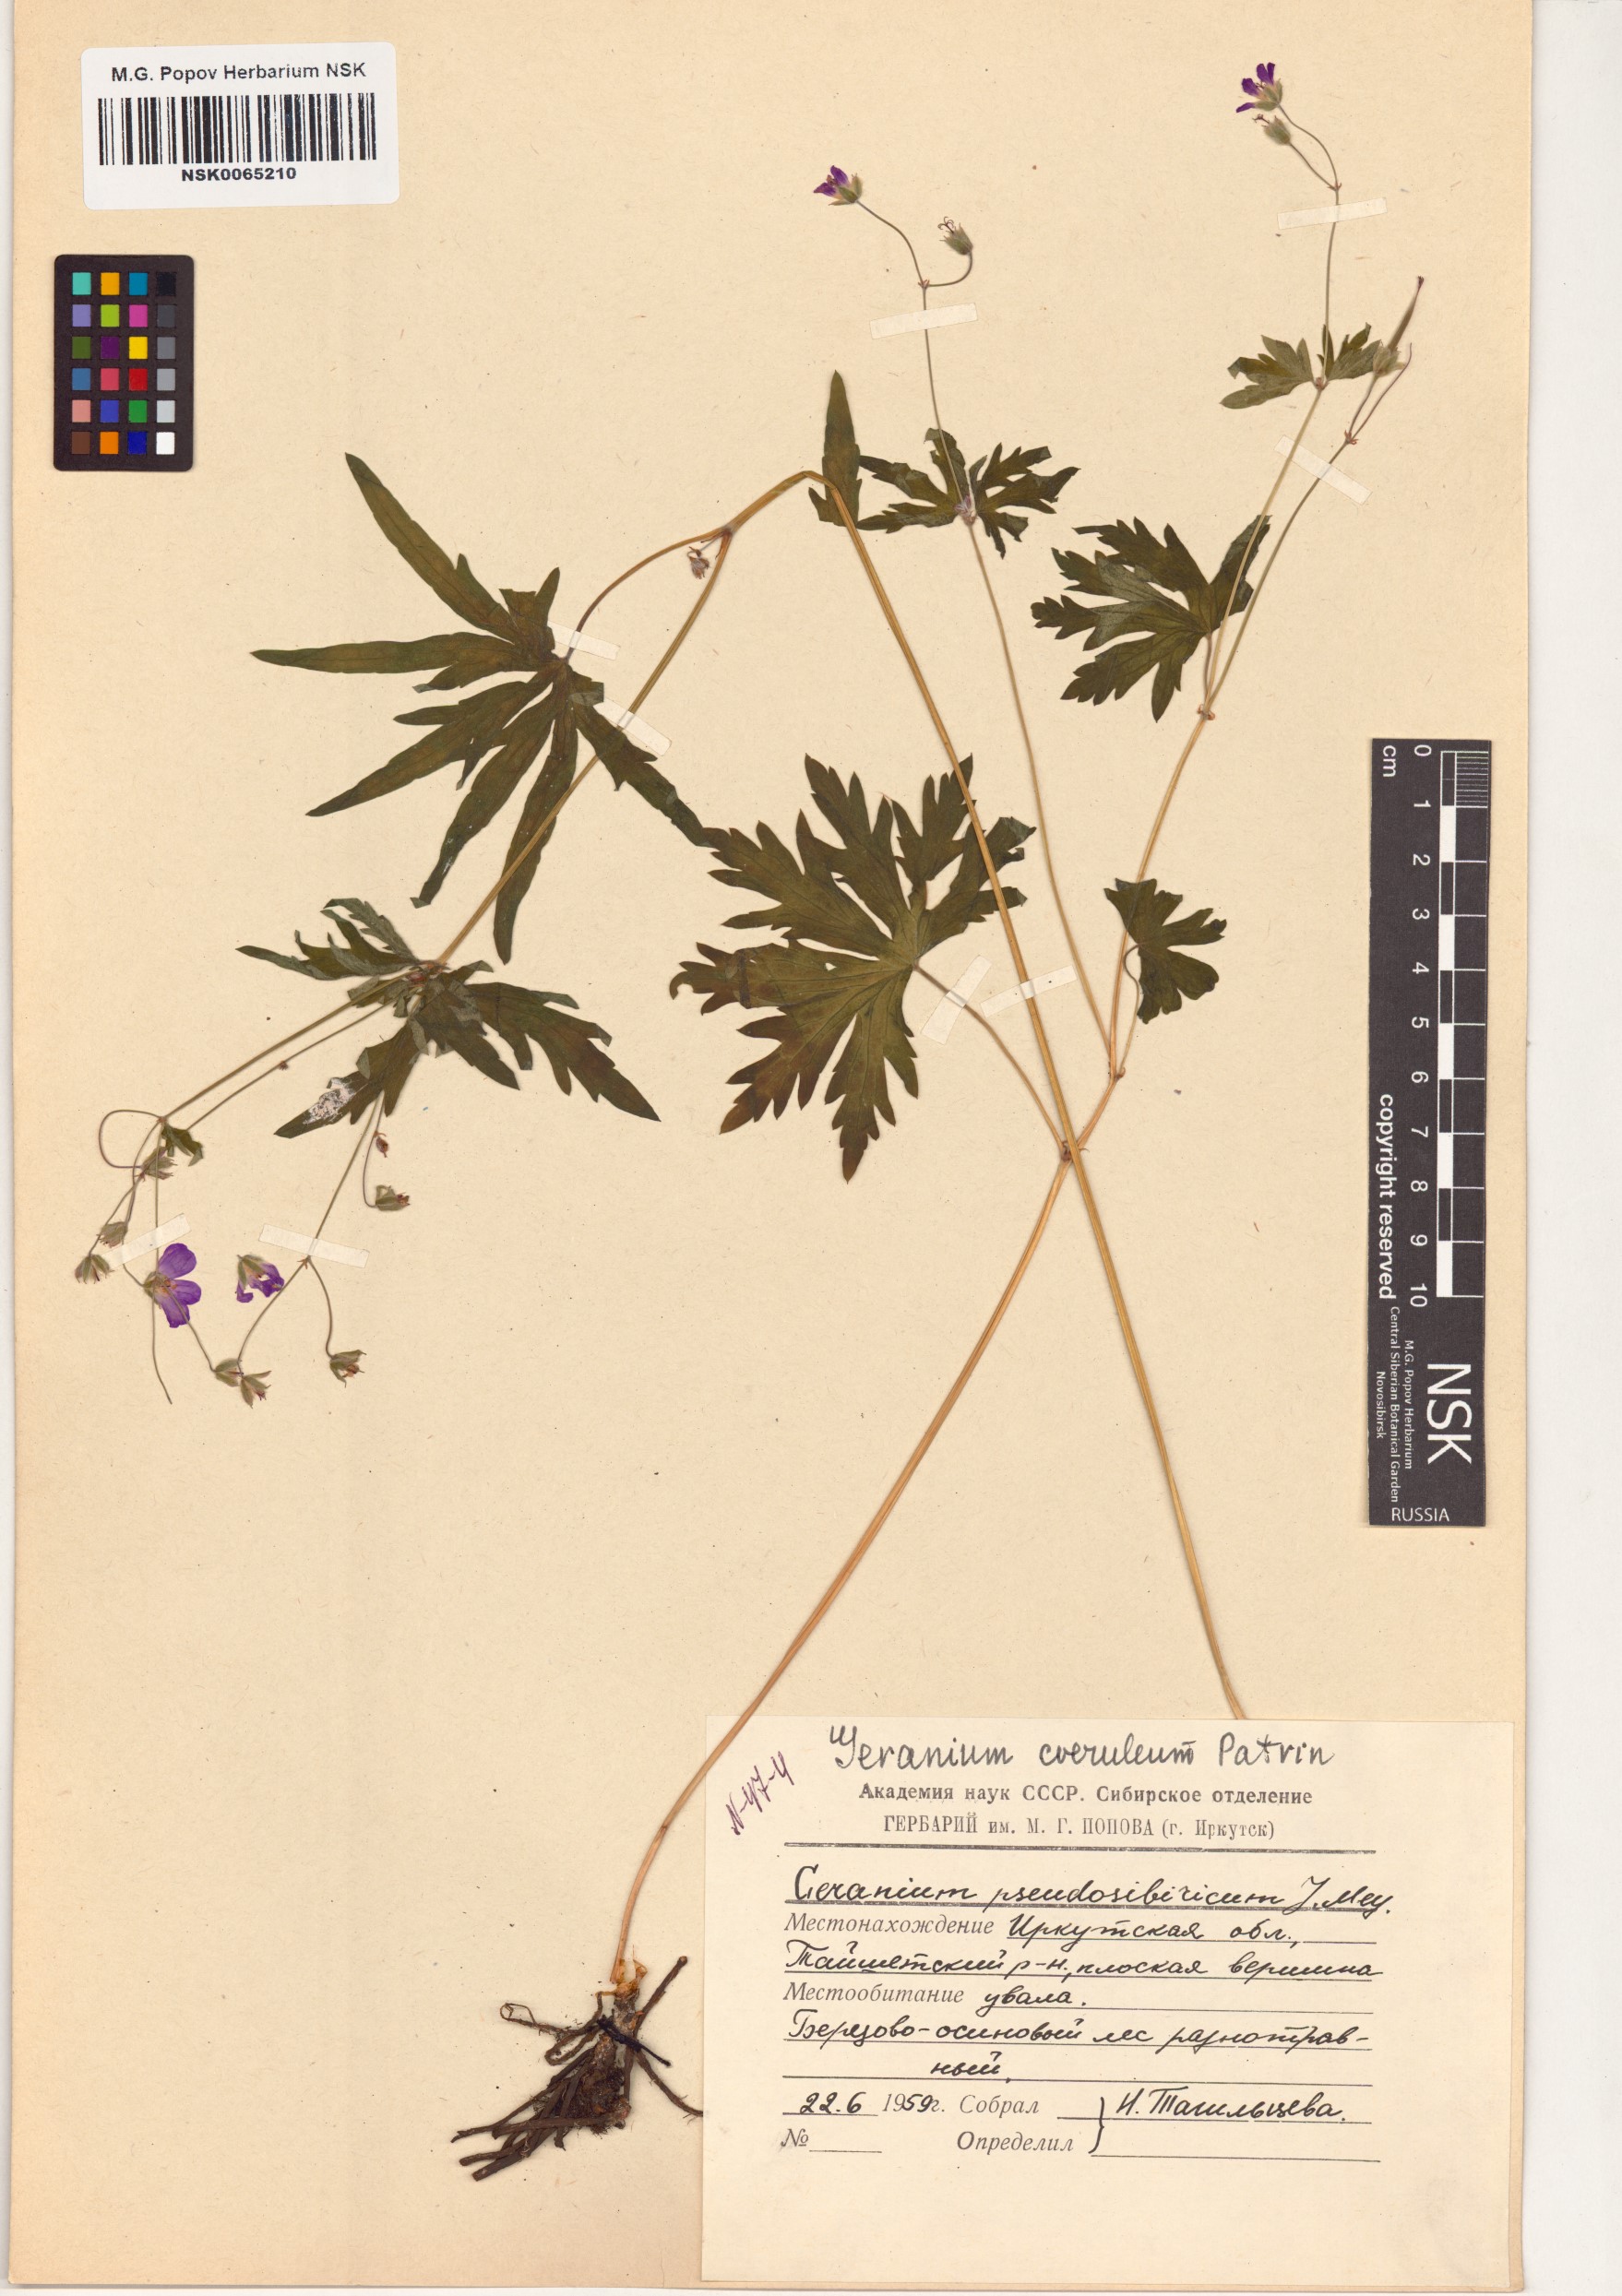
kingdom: Plantae
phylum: Tracheophyta
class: Magnoliopsida
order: Geraniales
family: Geraniaceae
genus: Geranium
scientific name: Geranium pseudosibiricum
